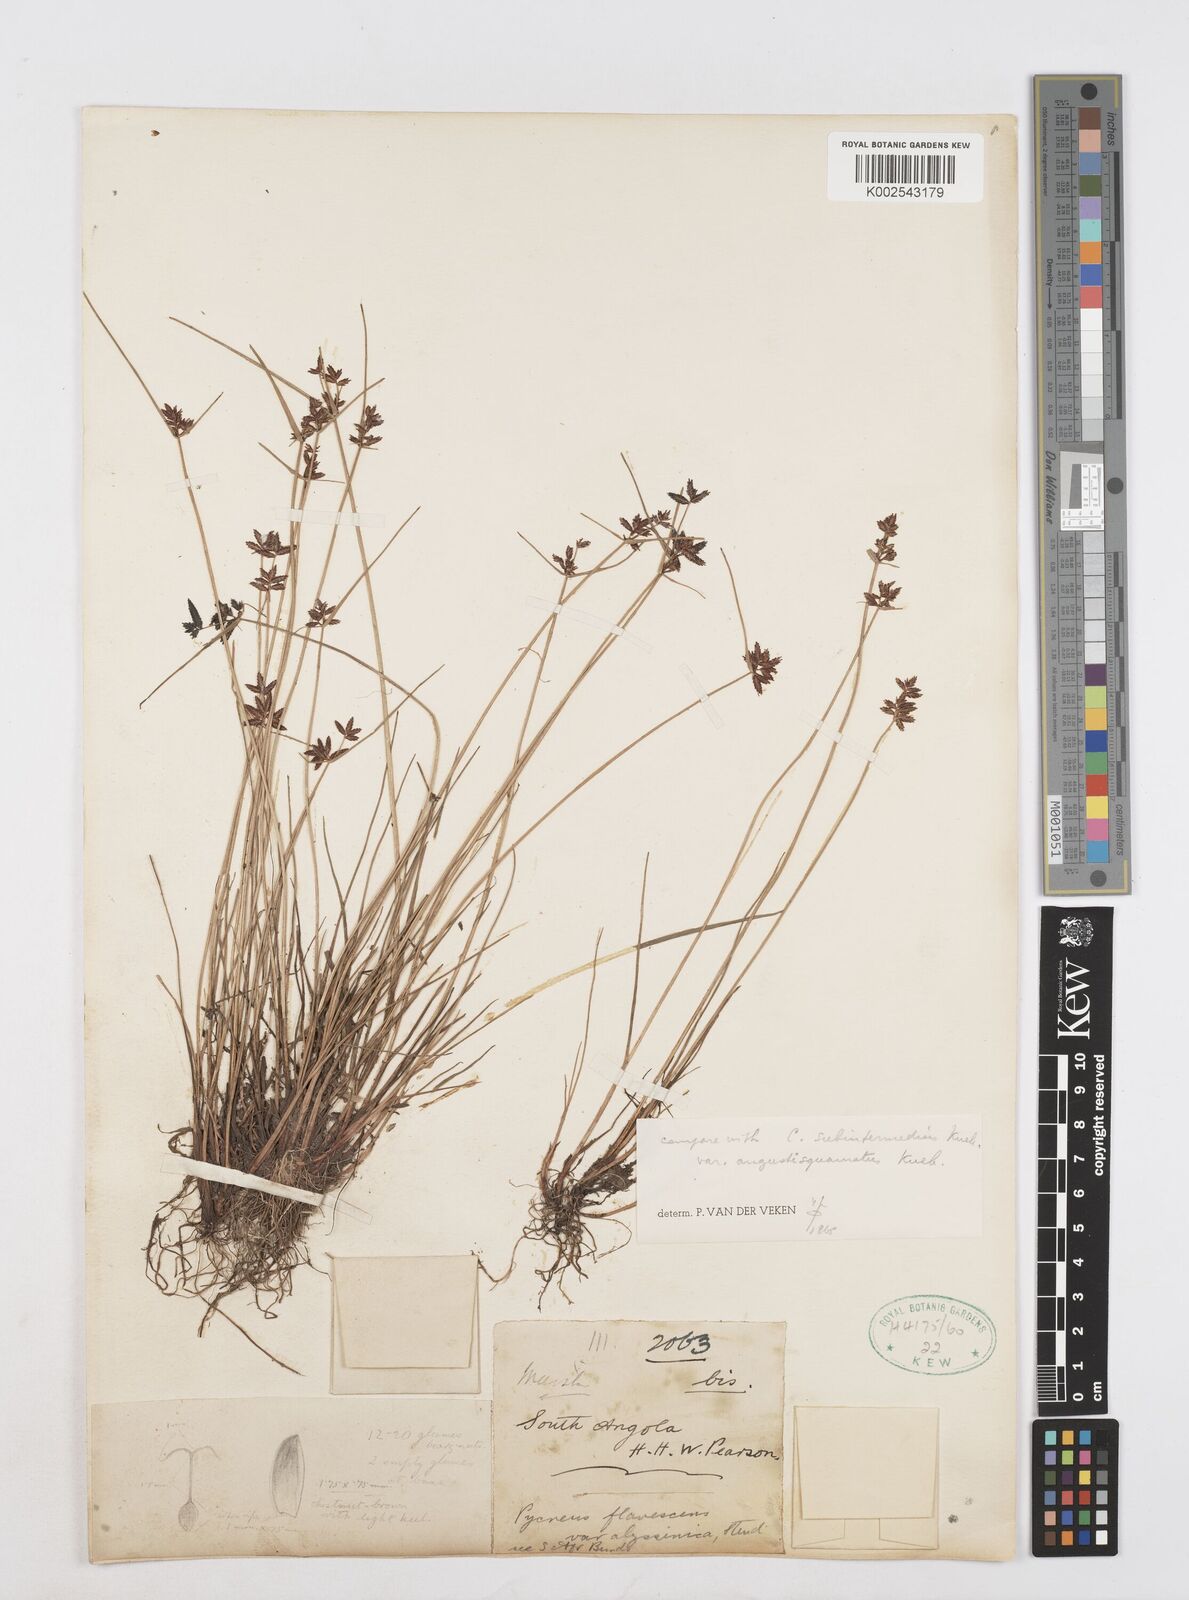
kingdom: Plantae
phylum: Tracheophyta
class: Liliopsida
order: Poales
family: Cyperaceae
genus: Cyperus
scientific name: Cyperus flavescens
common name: Yellow galingale
